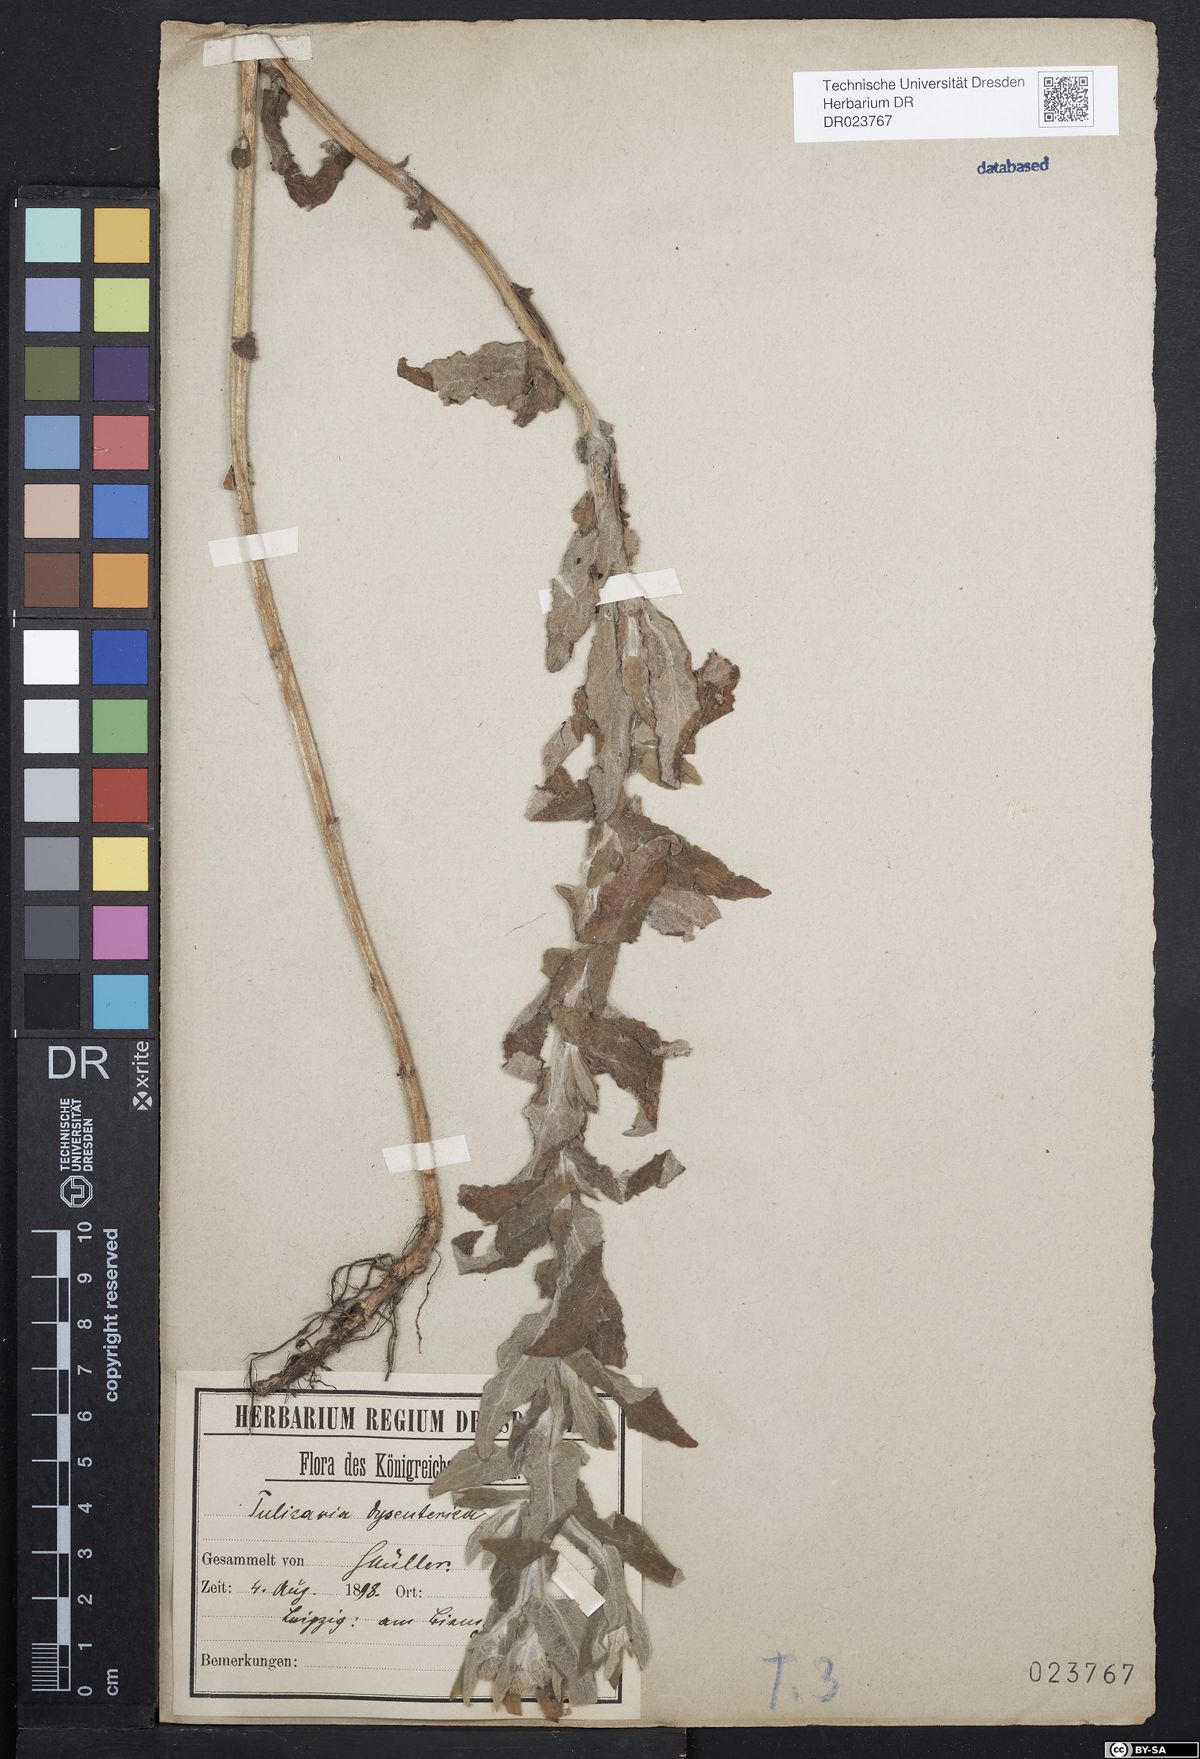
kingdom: Plantae
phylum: Tracheophyta
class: Magnoliopsida
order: Asterales
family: Asteraceae
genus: Pulicaria
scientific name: Pulicaria dysenterica
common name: Common fleabane
